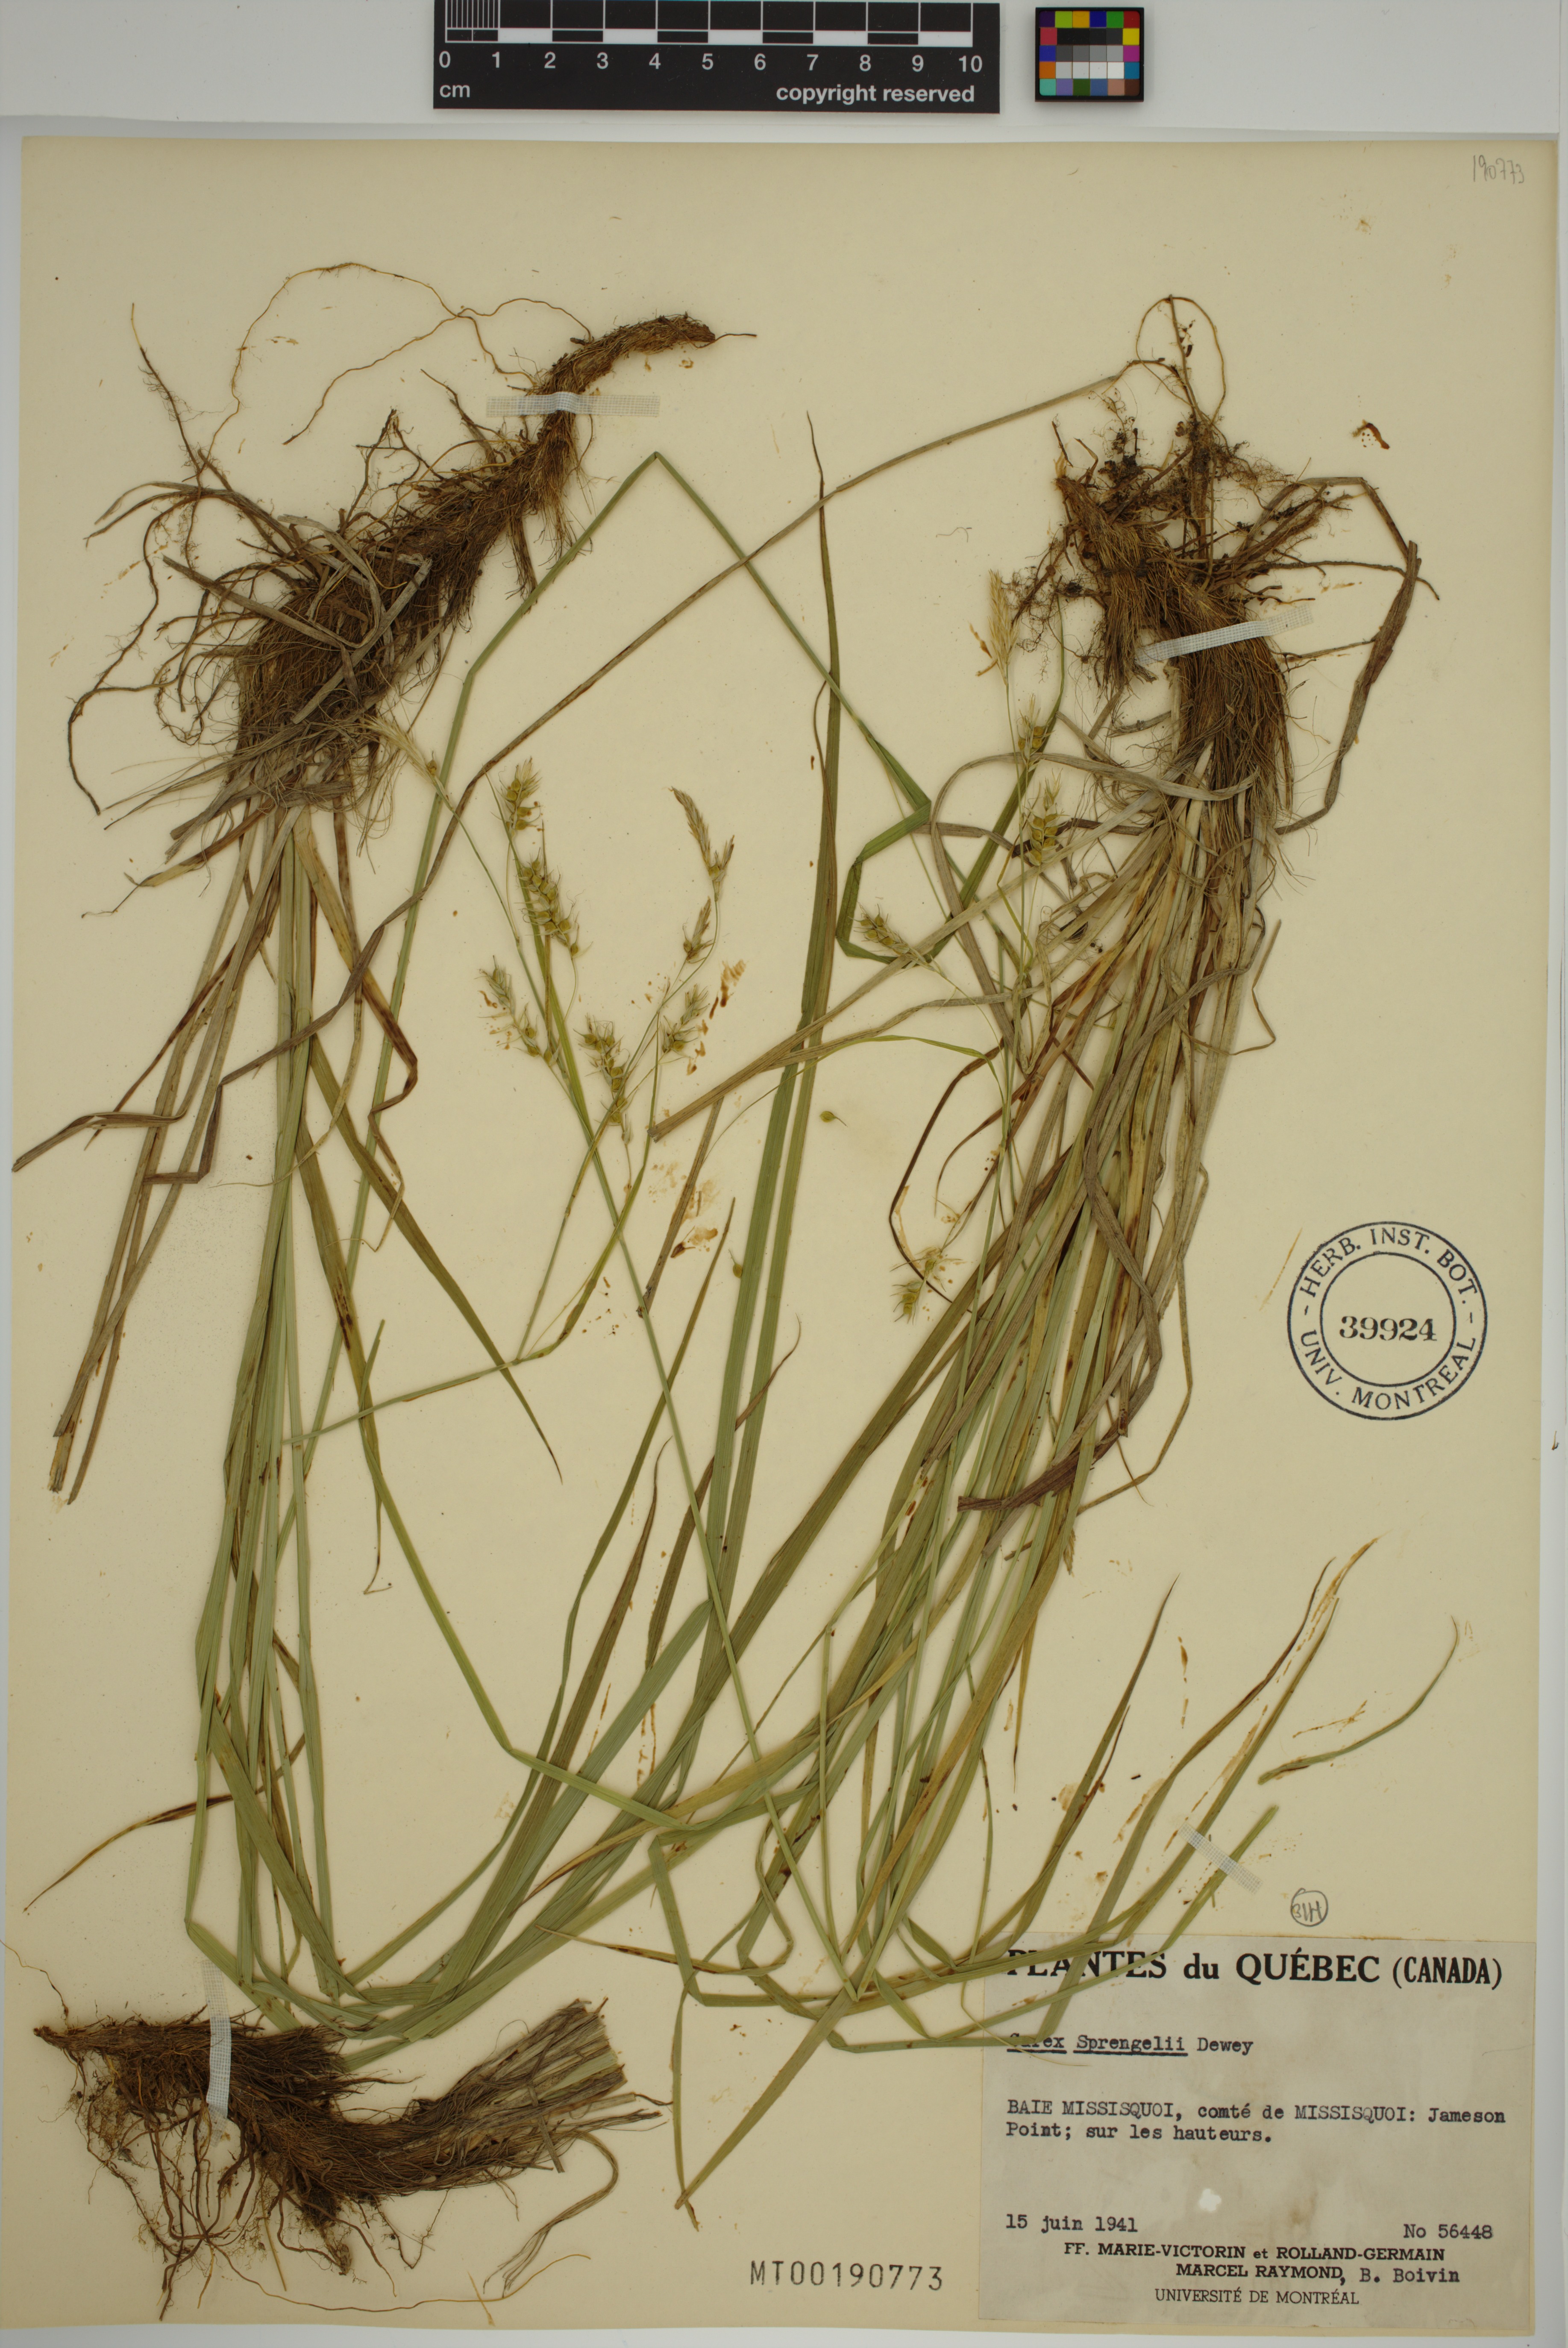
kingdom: Plantae
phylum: Tracheophyta
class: Liliopsida
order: Poales
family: Cyperaceae
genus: Carex
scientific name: Carex sprengelii
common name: Long-beaked sedge
